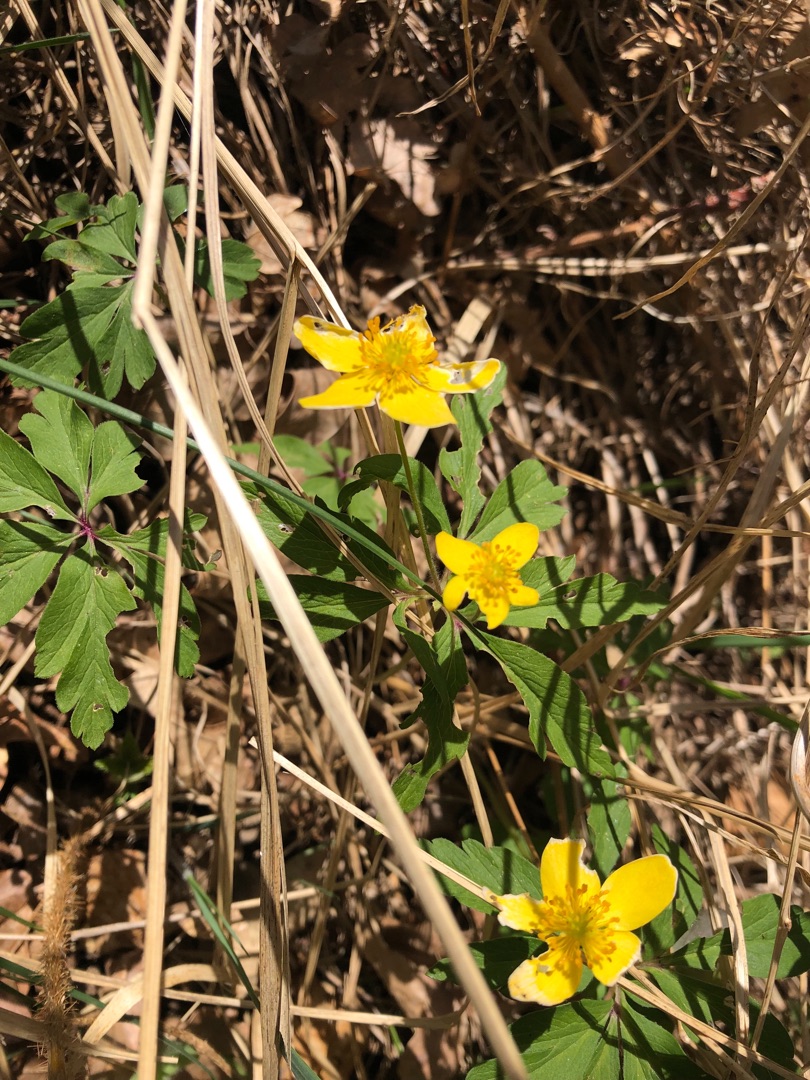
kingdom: Plantae
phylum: Tracheophyta
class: Magnoliopsida
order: Ranunculales
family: Ranunculaceae
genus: Anemone
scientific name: Anemone ranunculoides
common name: Gul anemone
